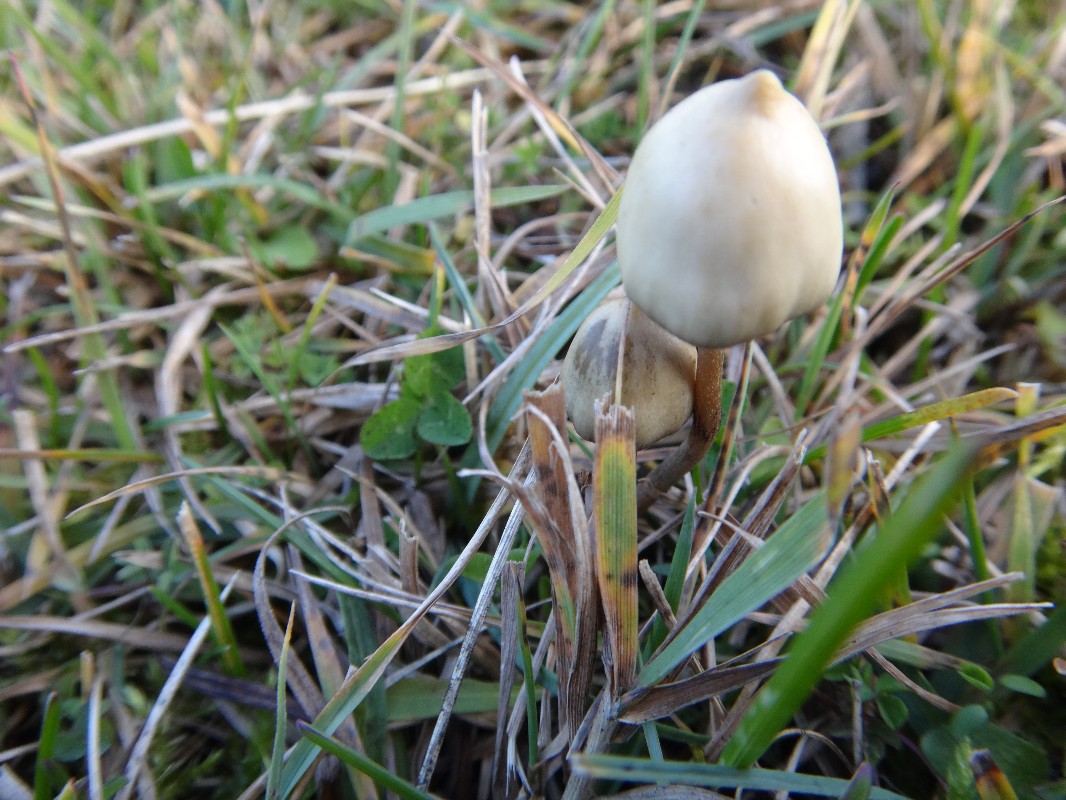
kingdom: Fungi
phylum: Basidiomycota
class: Agaricomycetes
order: Agaricales
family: Hymenogastraceae
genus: Psilocybe
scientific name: Psilocybe semilanceata
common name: spids nøgenhat
